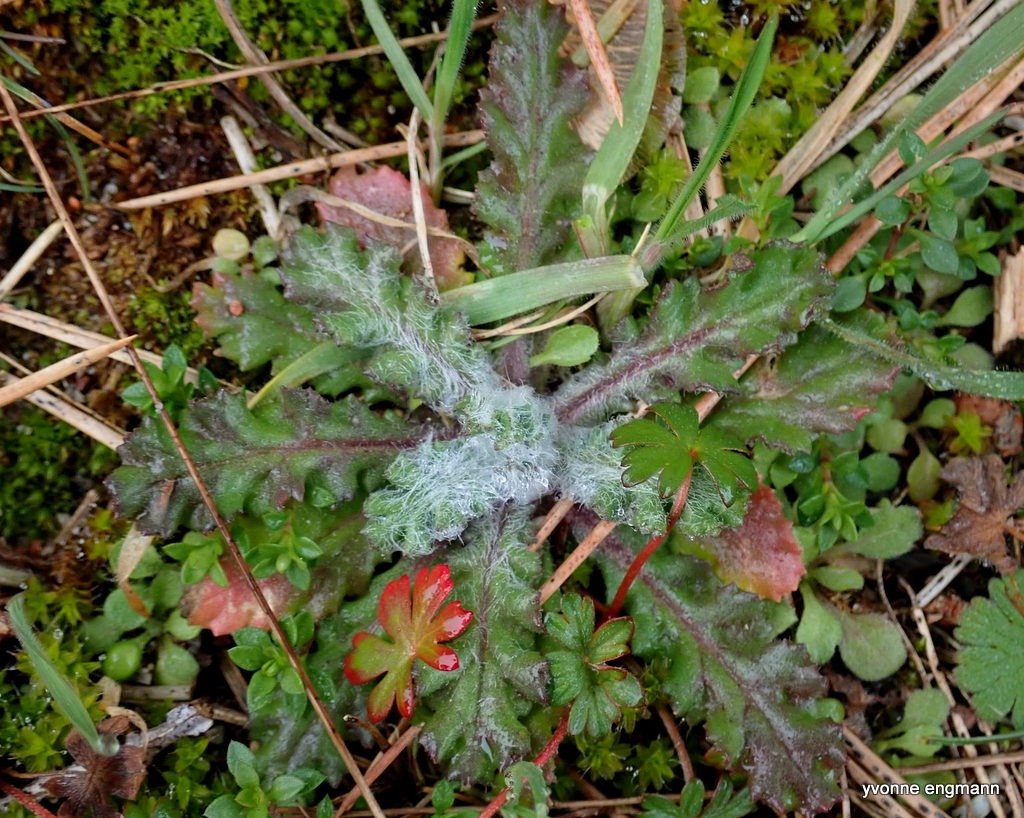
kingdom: Plantae
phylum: Tracheophyta
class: Magnoliopsida
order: Asterales
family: Asteraceae
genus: Senecio
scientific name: Senecio leucanthemifolius
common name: Vår-brandbæger
